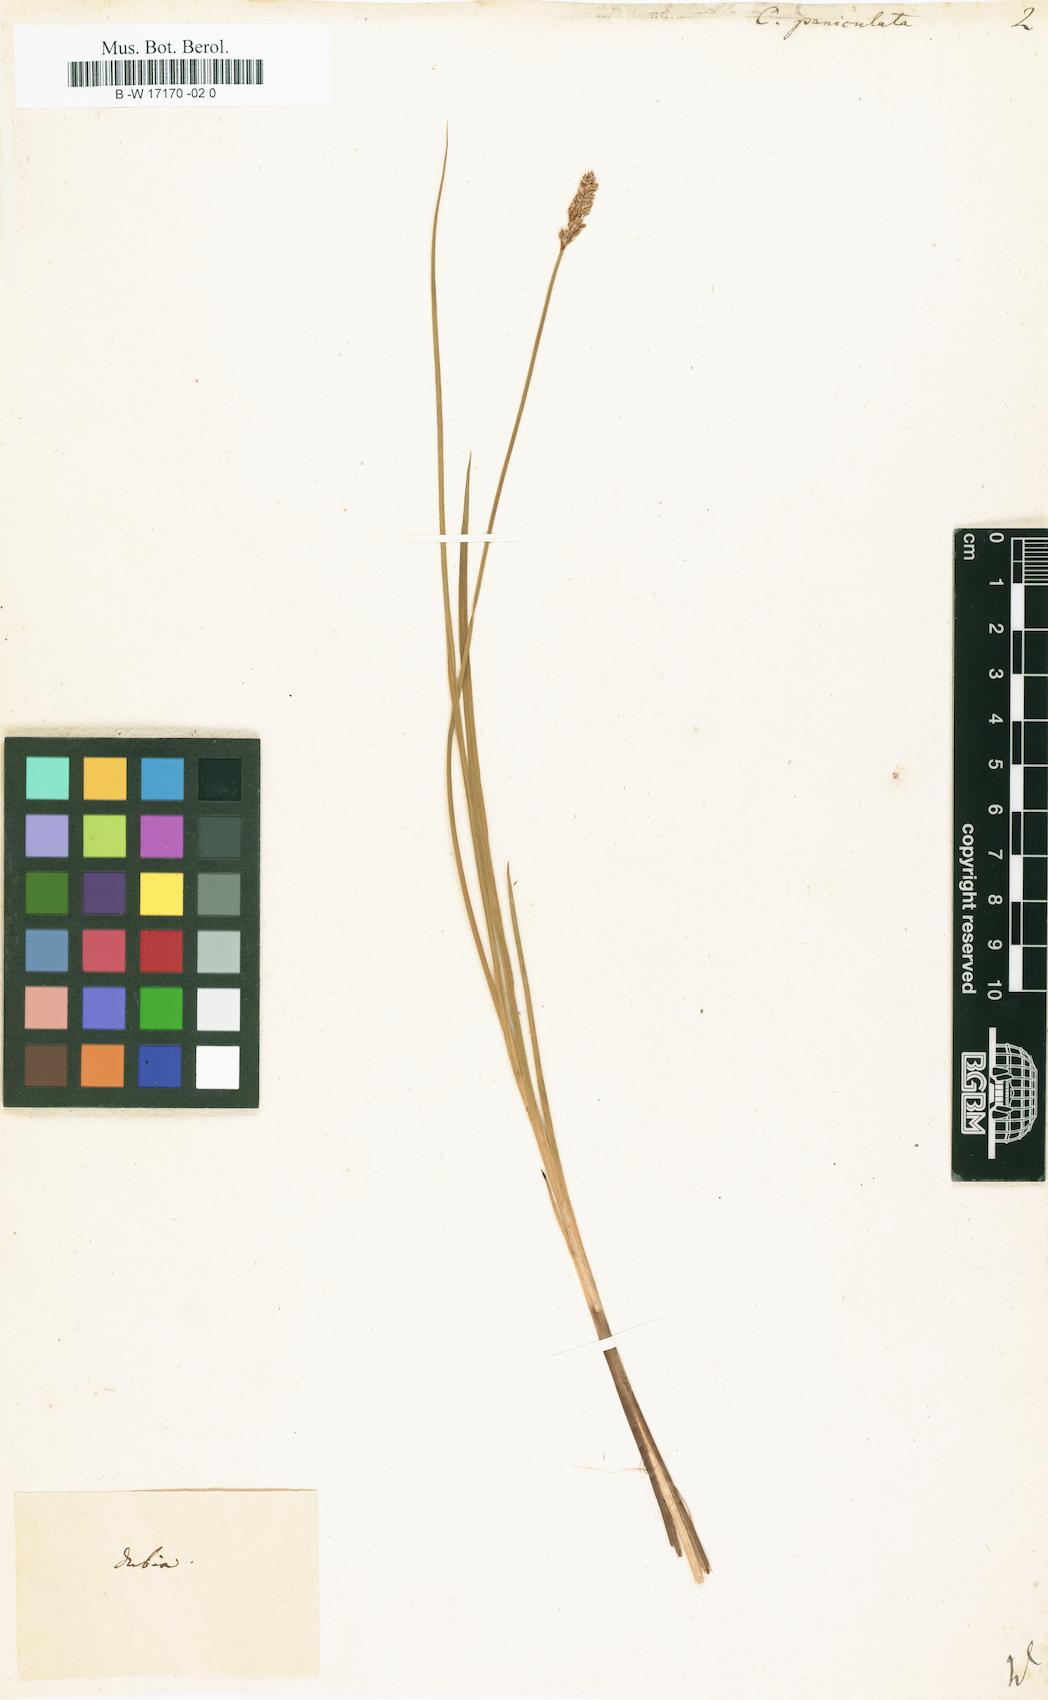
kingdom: Plantae
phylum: Tracheophyta
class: Liliopsida
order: Poales
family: Cyperaceae
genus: Carex
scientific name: Carex paniculata
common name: Greater tussock-sedge
